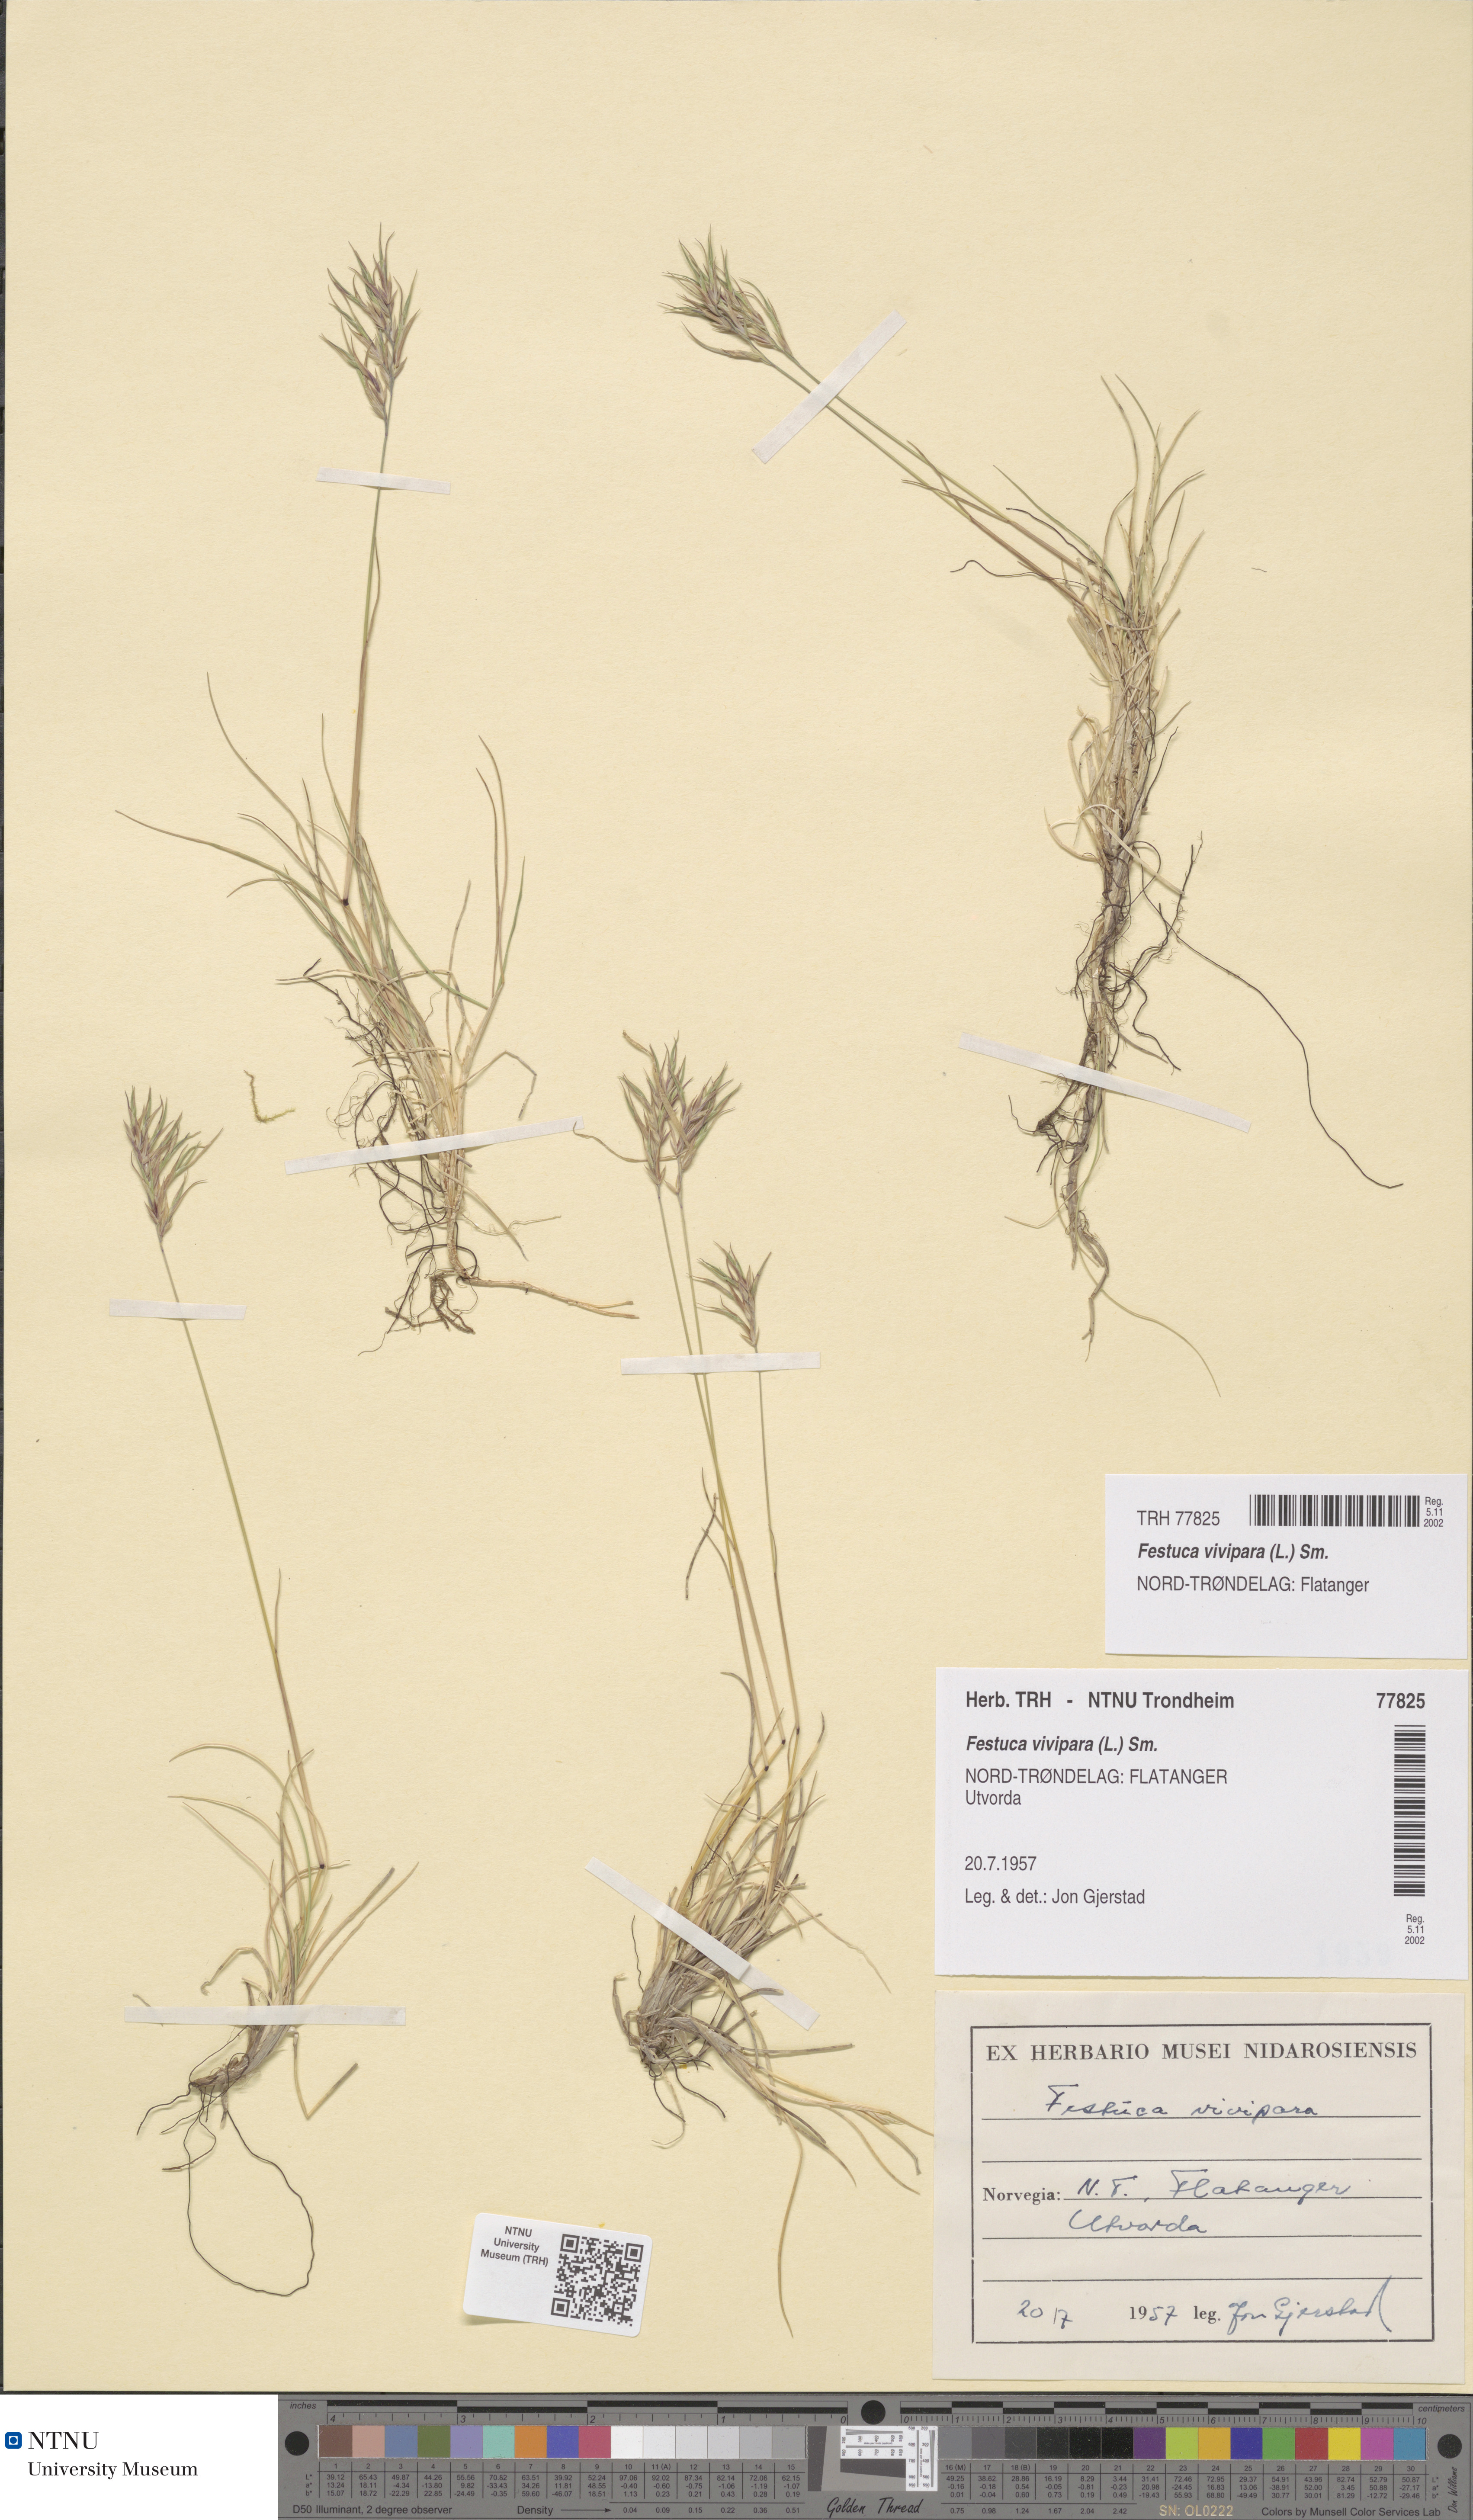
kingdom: Plantae
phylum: Tracheophyta
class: Liliopsida
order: Poales
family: Poaceae
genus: Festuca
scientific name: Festuca vivipara
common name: Viviparous sheep's-fescue
